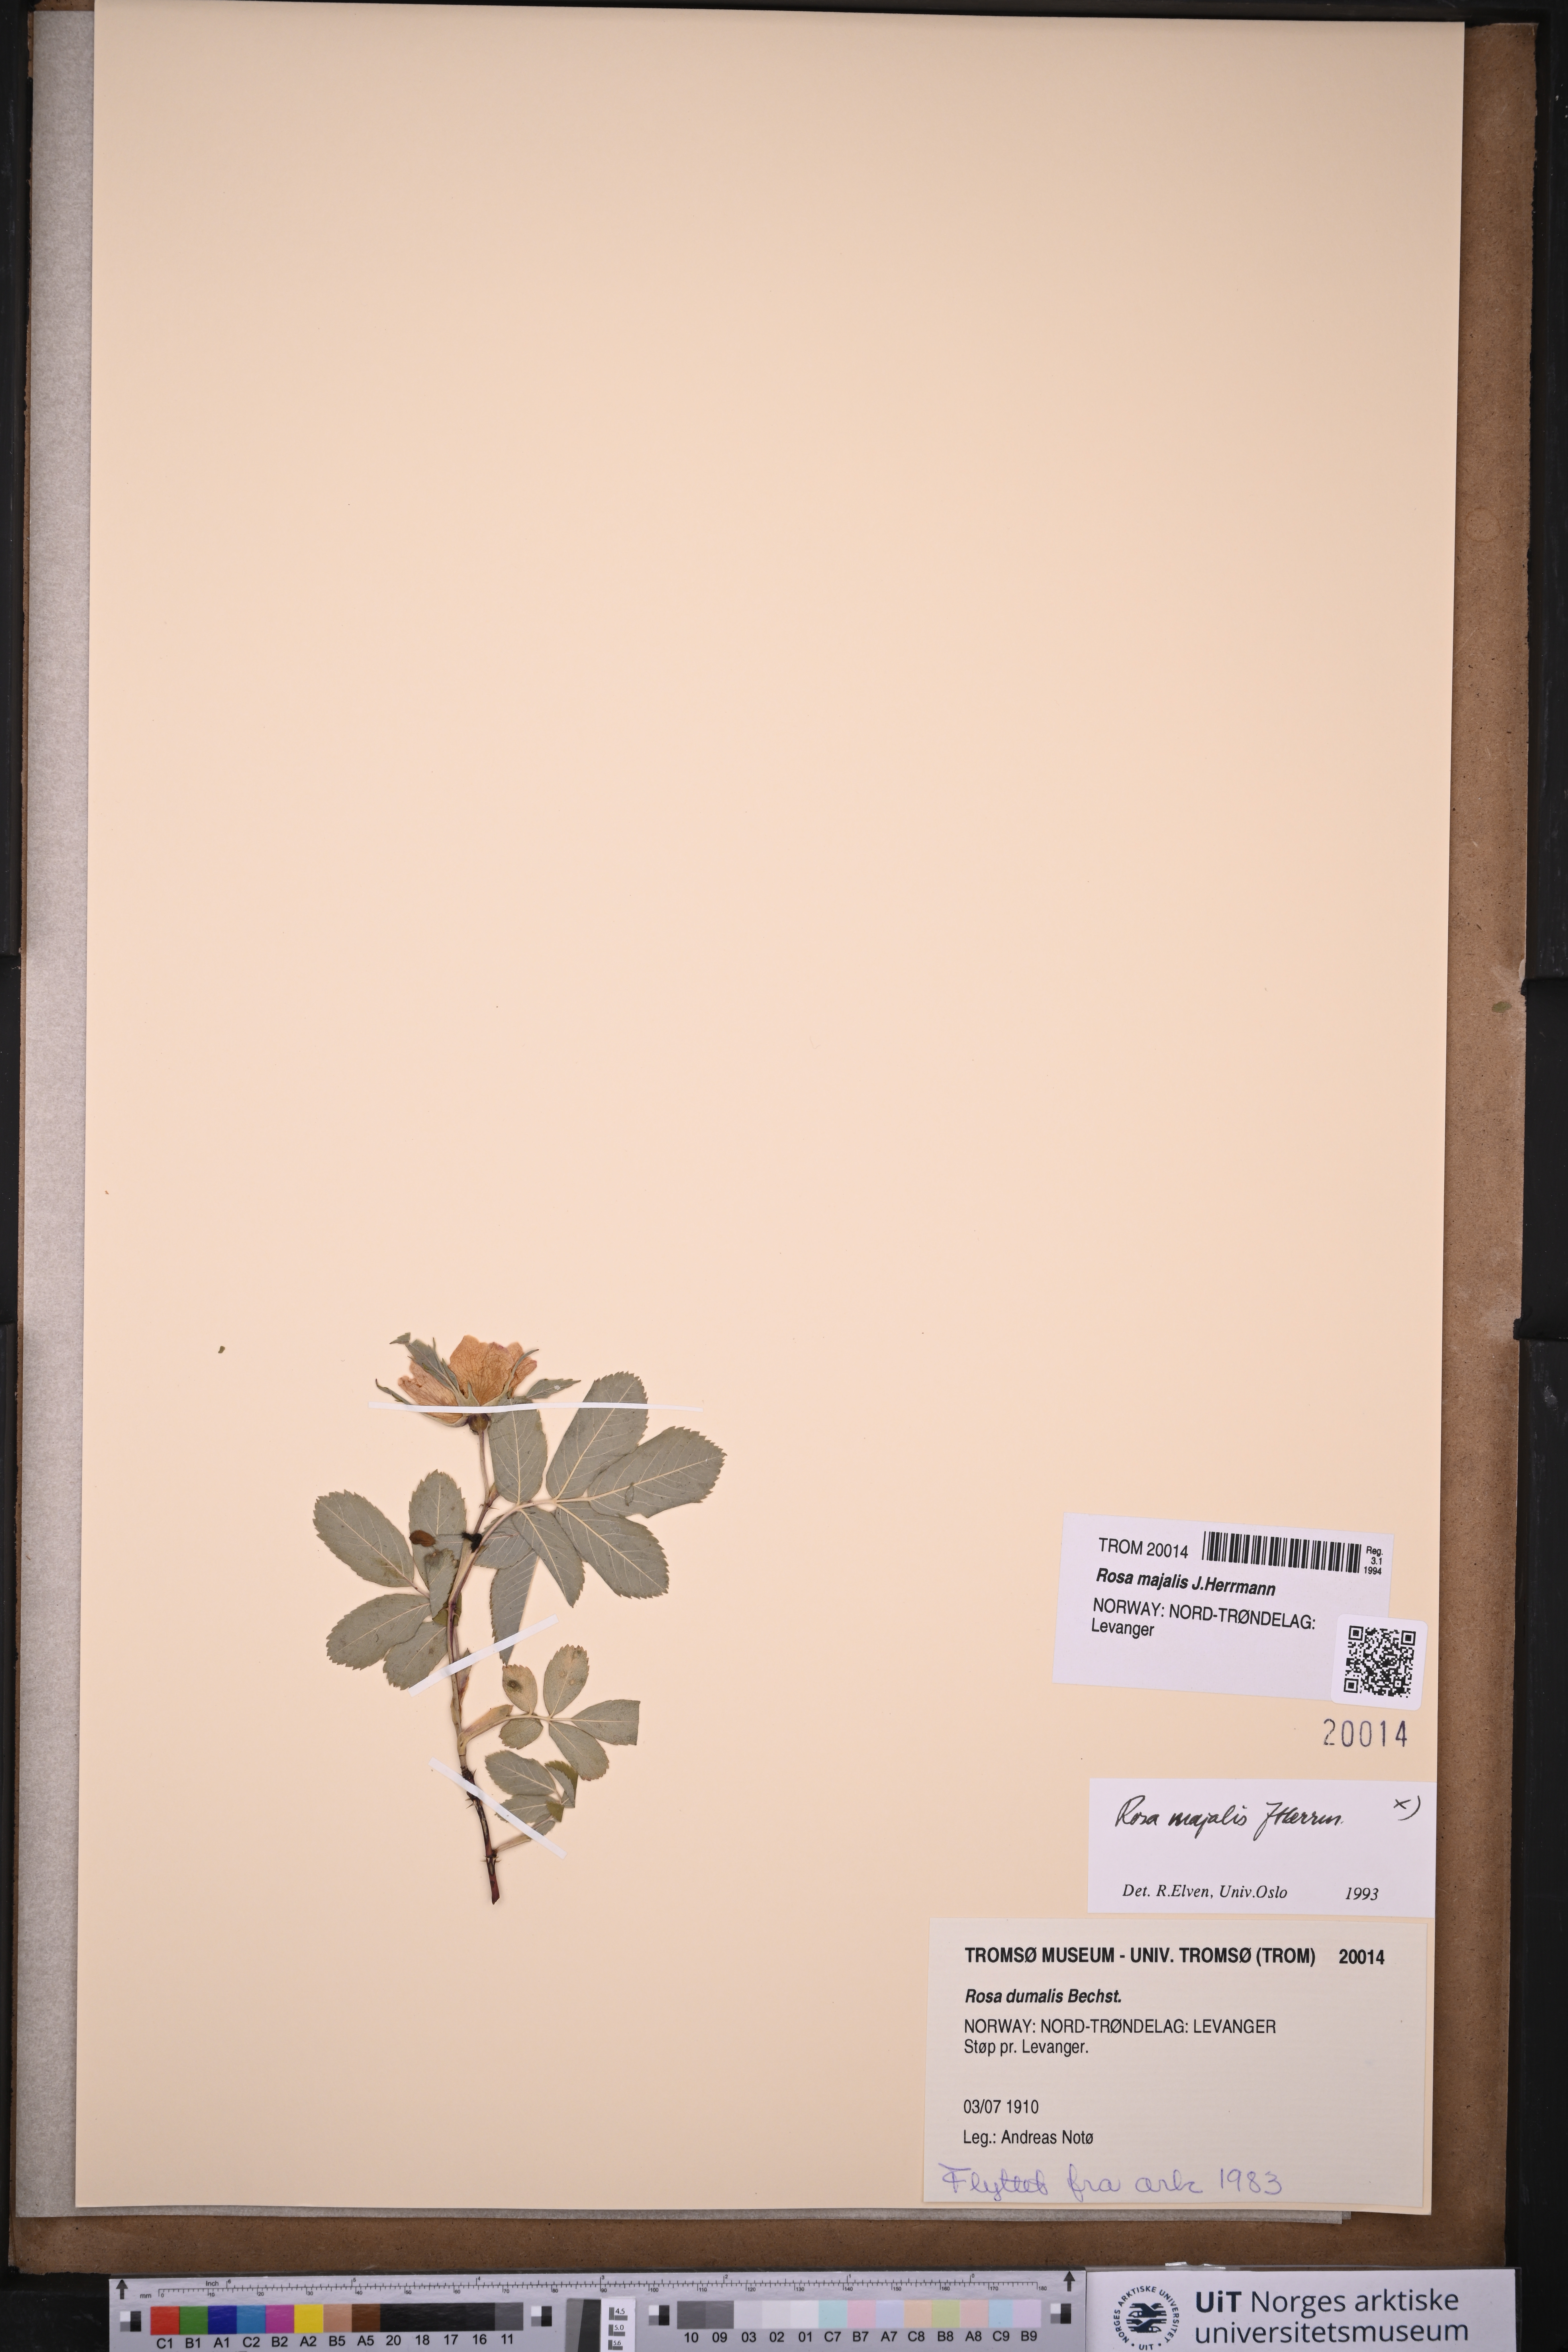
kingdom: Plantae
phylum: Tracheophyta
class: Magnoliopsida
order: Rosales
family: Rosaceae
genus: Rosa
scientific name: Rosa majalis
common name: Cinnamon rose
